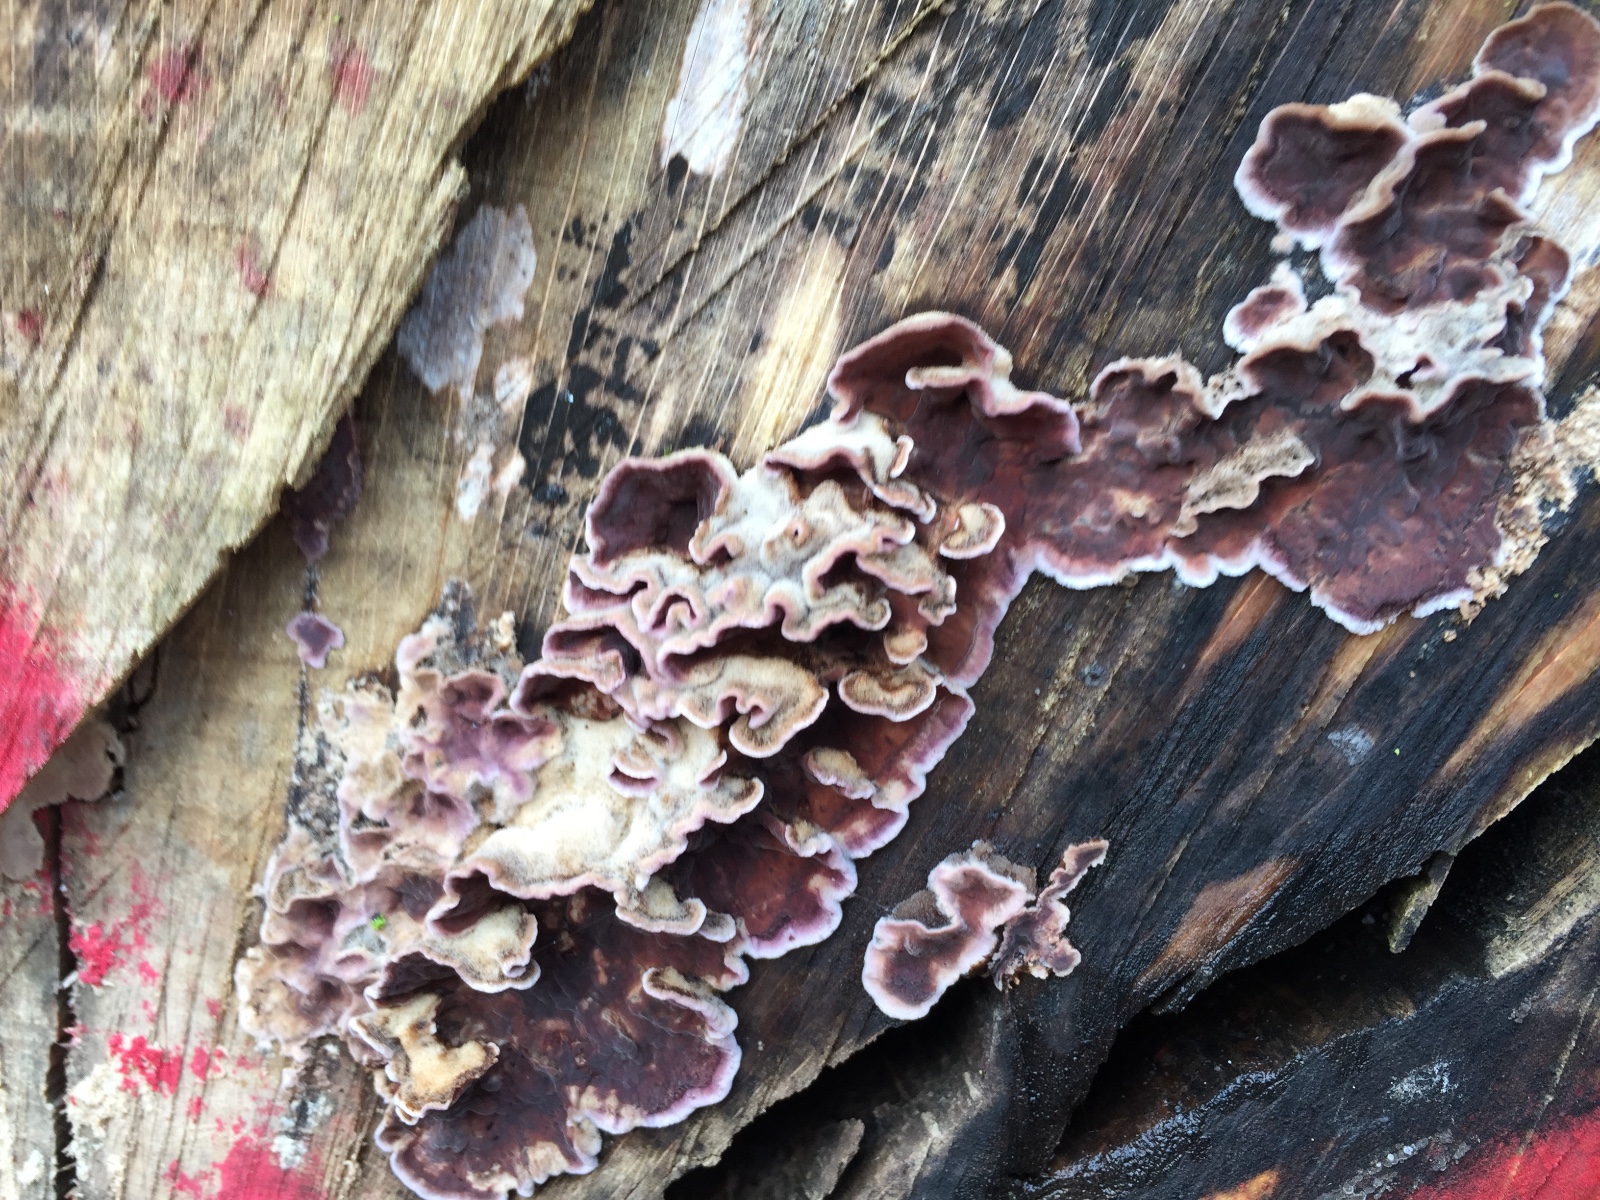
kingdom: Fungi
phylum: Basidiomycota
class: Agaricomycetes
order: Agaricales
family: Cyphellaceae
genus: Chondrostereum
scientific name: Chondrostereum purpureum
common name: purpurlædersvamp
